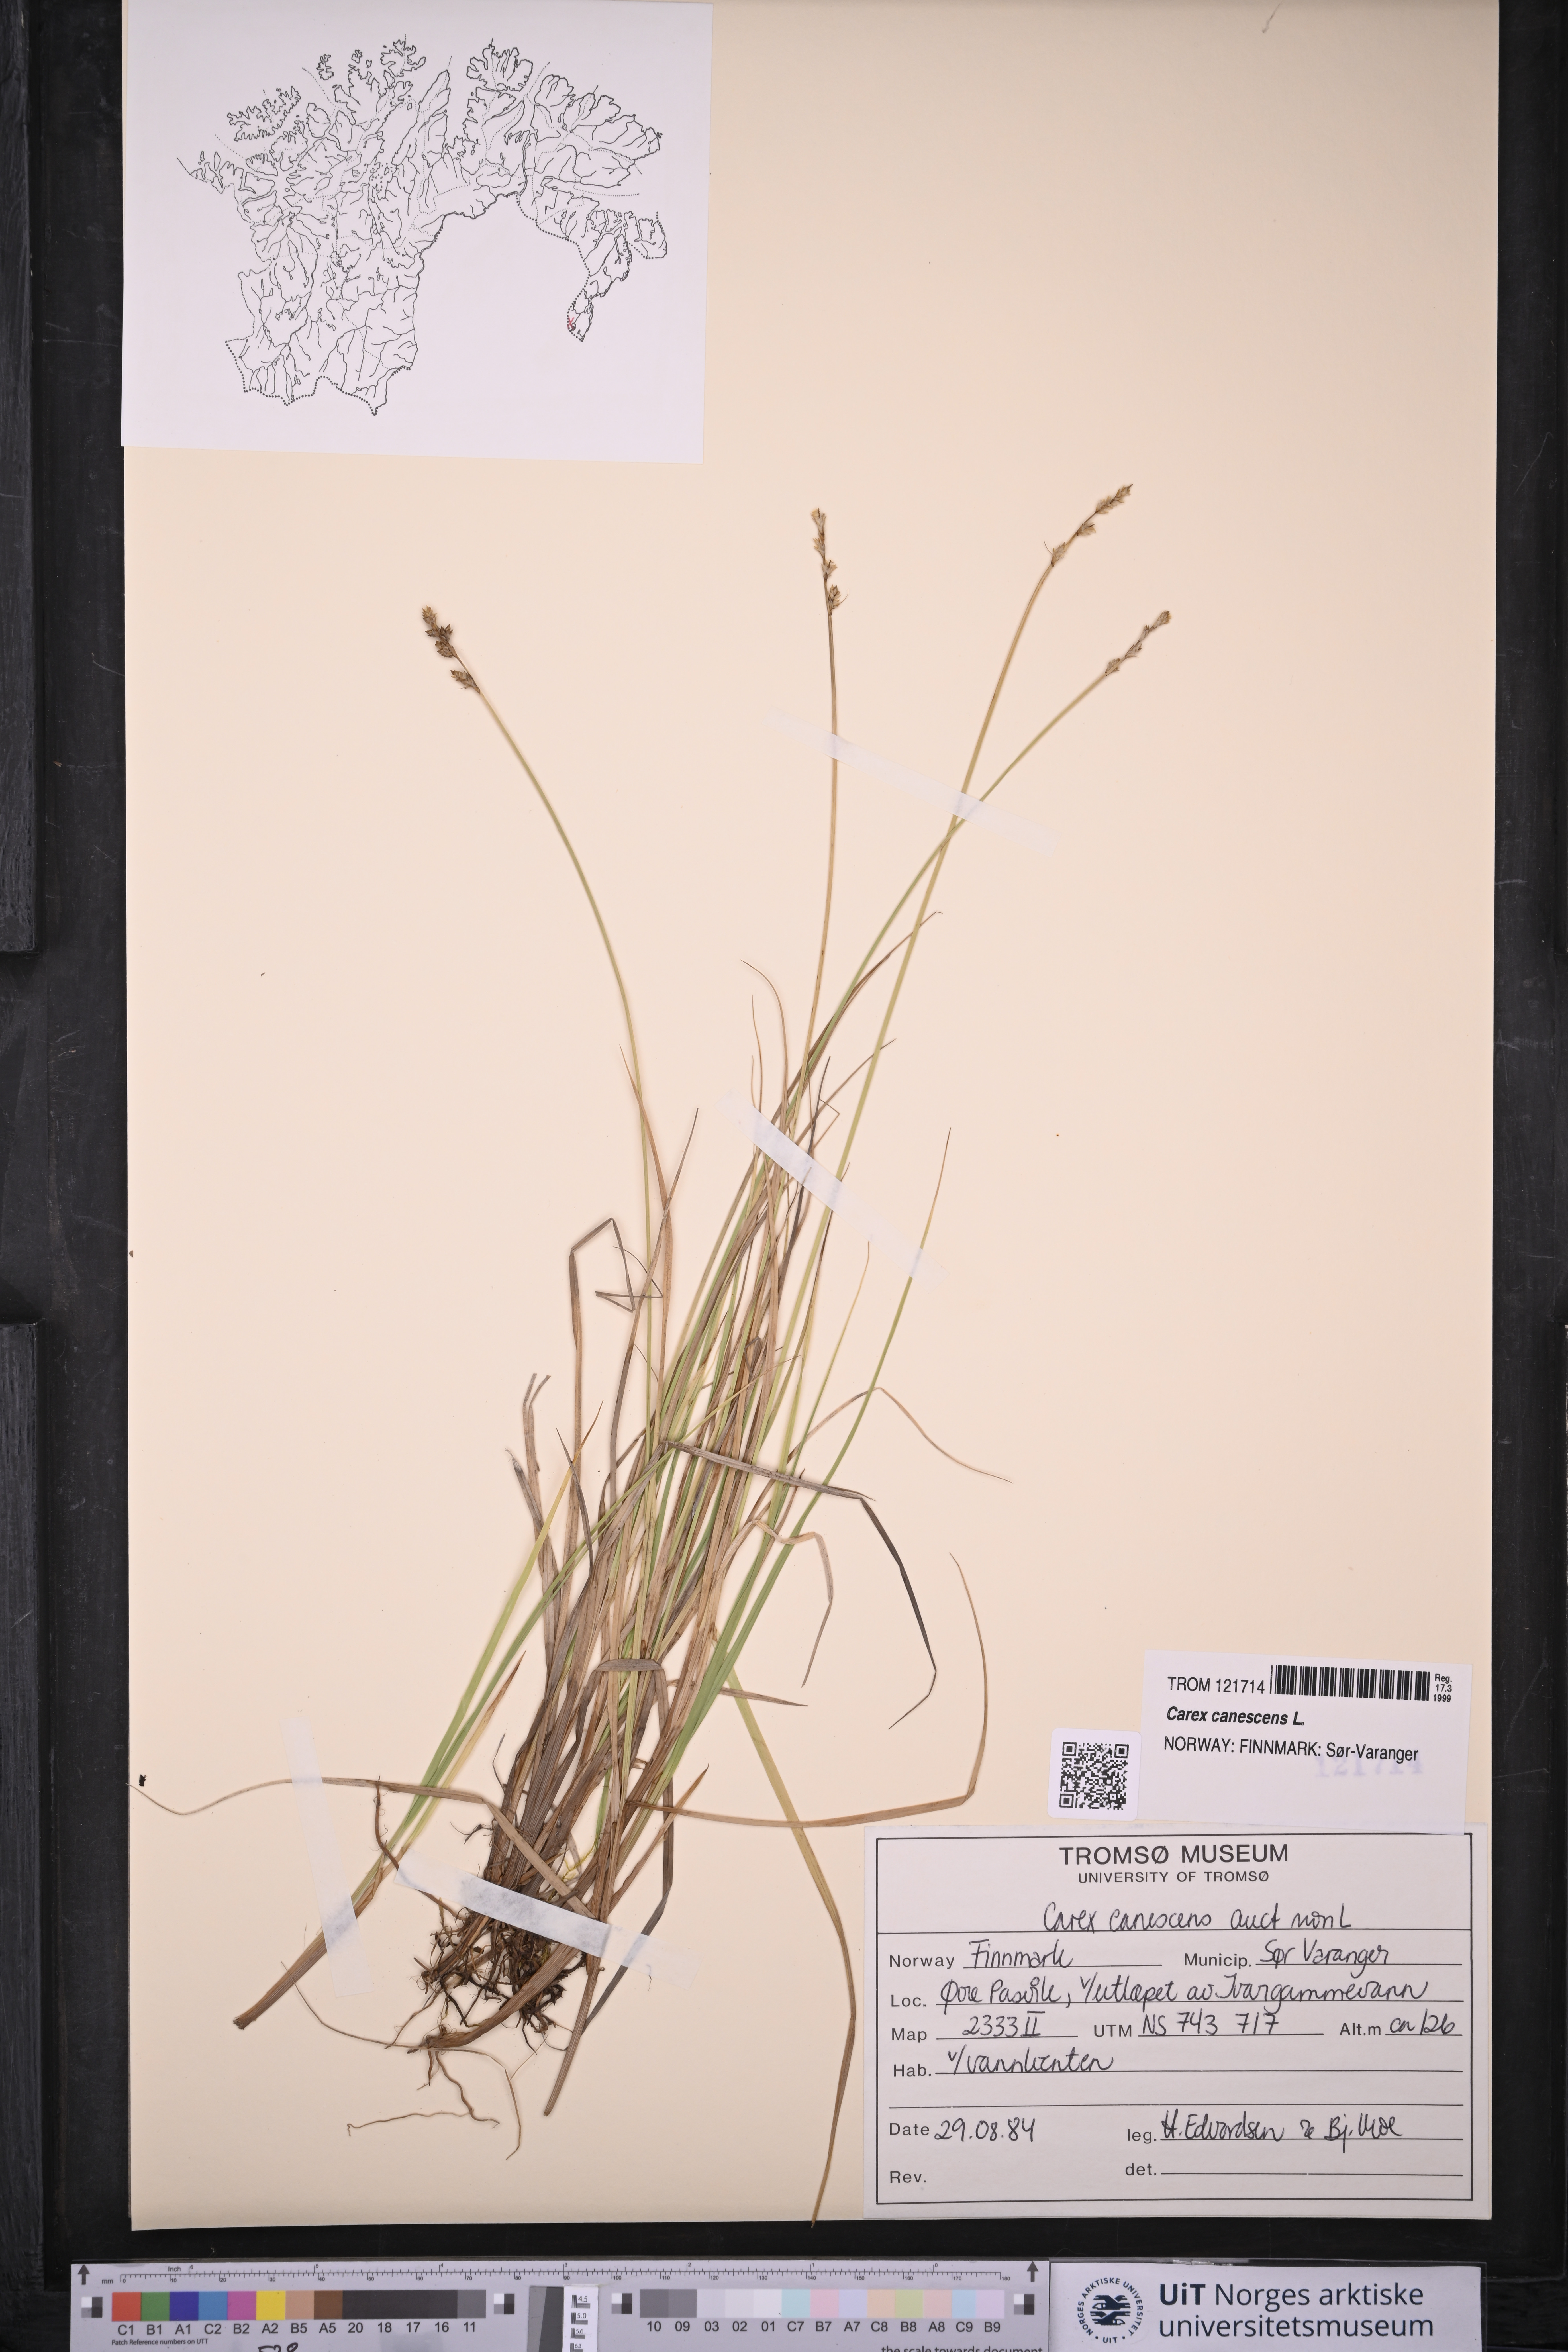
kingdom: Plantae
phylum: Tracheophyta
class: Liliopsida
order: Poales
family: Cyperaceae
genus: Carex
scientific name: Carex canescens
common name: White sedge
